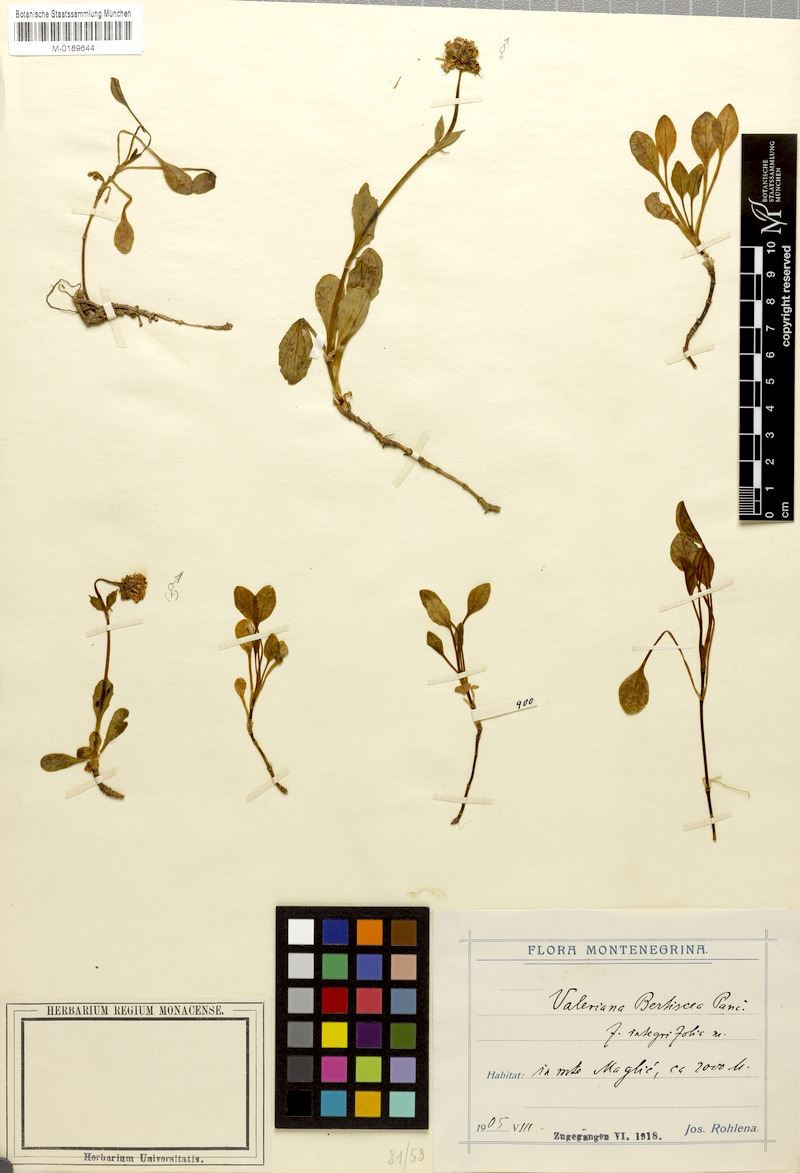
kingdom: Plantae
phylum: Tracheophyta
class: Magnoliopsida
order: Dipsacales
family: Caprifoliaceae
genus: Valeriana
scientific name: Valeriana bertiscea
